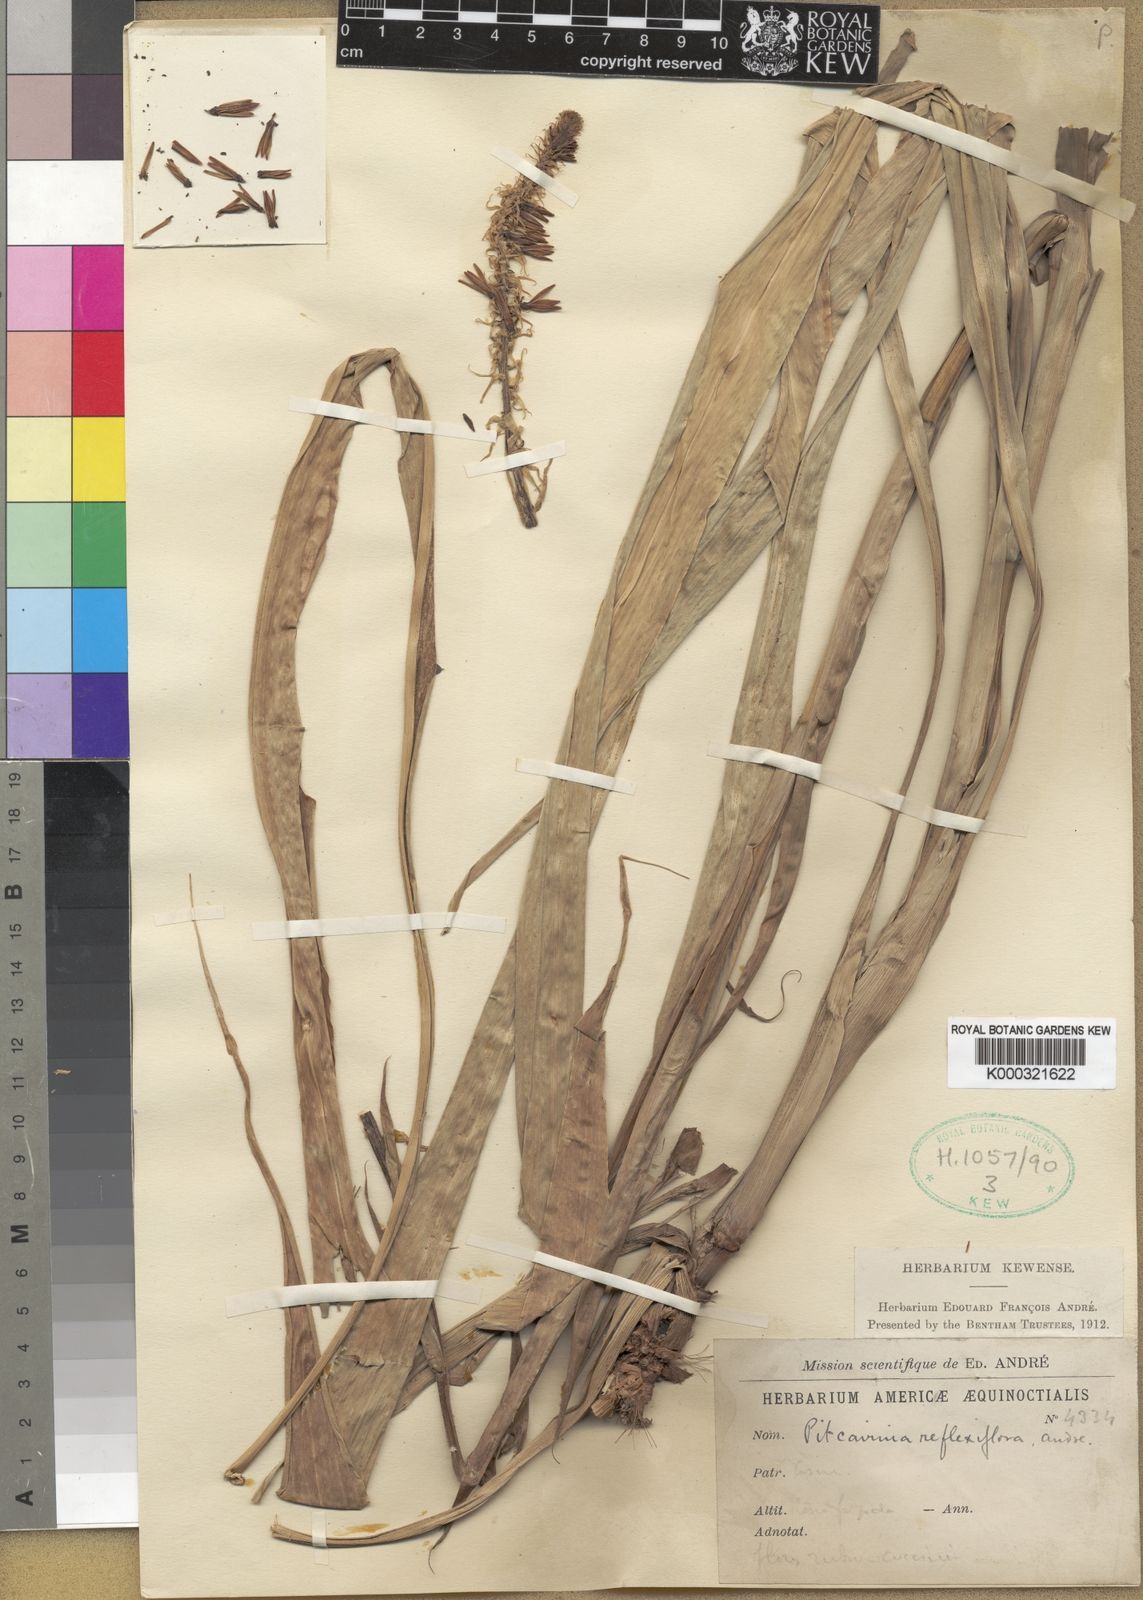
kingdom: Plantae
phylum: Tracheophyta
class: Liliopsida
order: Poales
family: Bromeliaceae
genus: Pitcairnia
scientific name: Pitcairnia
